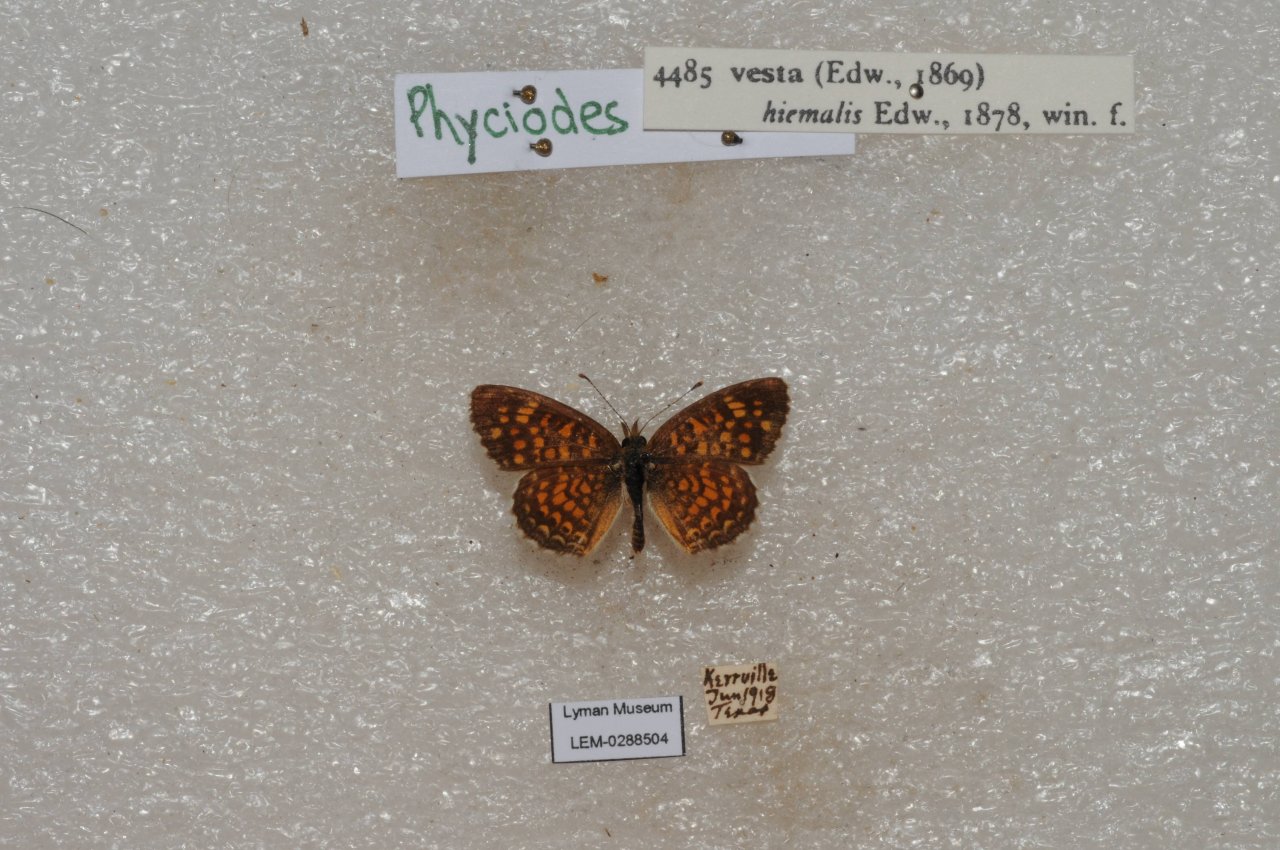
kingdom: Animalia
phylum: Arthropoda
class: Insecta
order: Lepidoptera
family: Nymphalidae
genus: Phyciodes
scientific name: Phyciodes vesta
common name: Vesta Crescent
